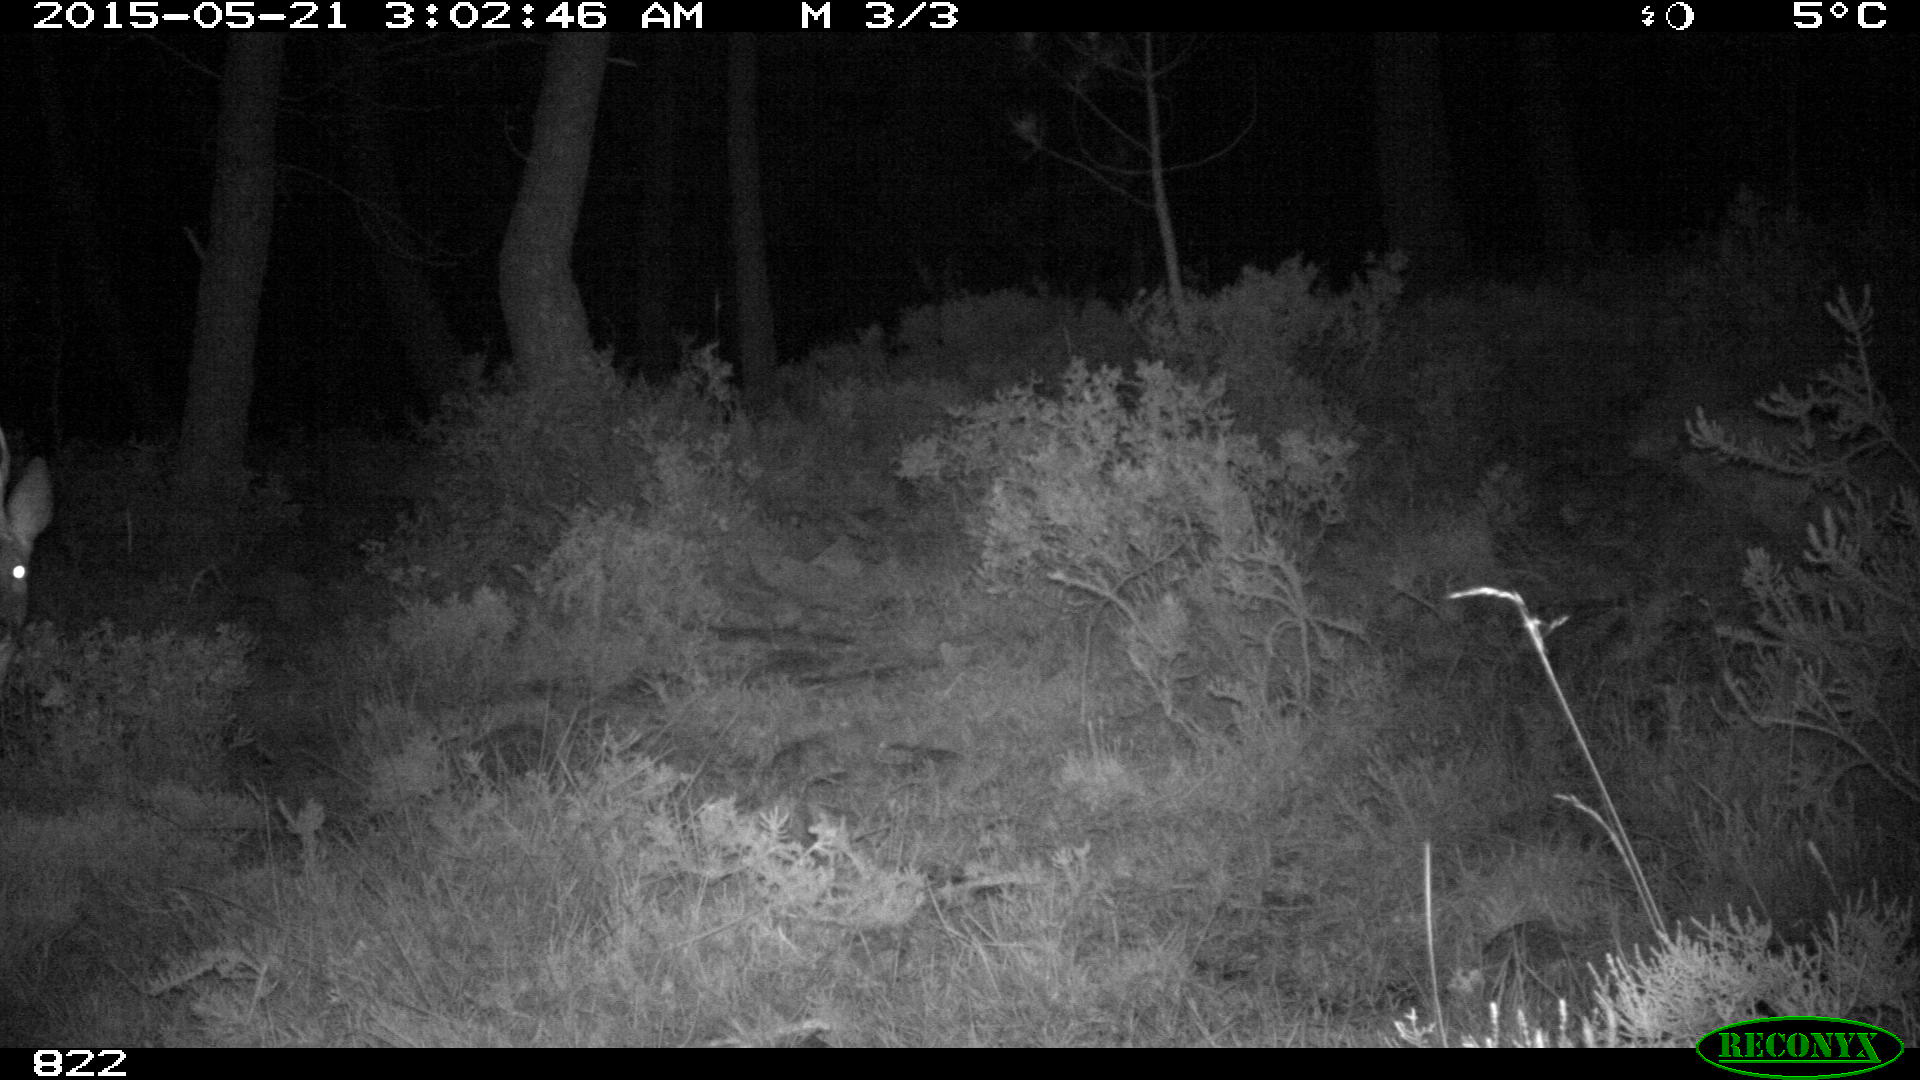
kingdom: Animalia
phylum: Chordata
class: Mammalia
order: Artiodactyla
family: Cervidae
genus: Capreolus
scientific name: Capreolus capreolus
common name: Western roe deer
